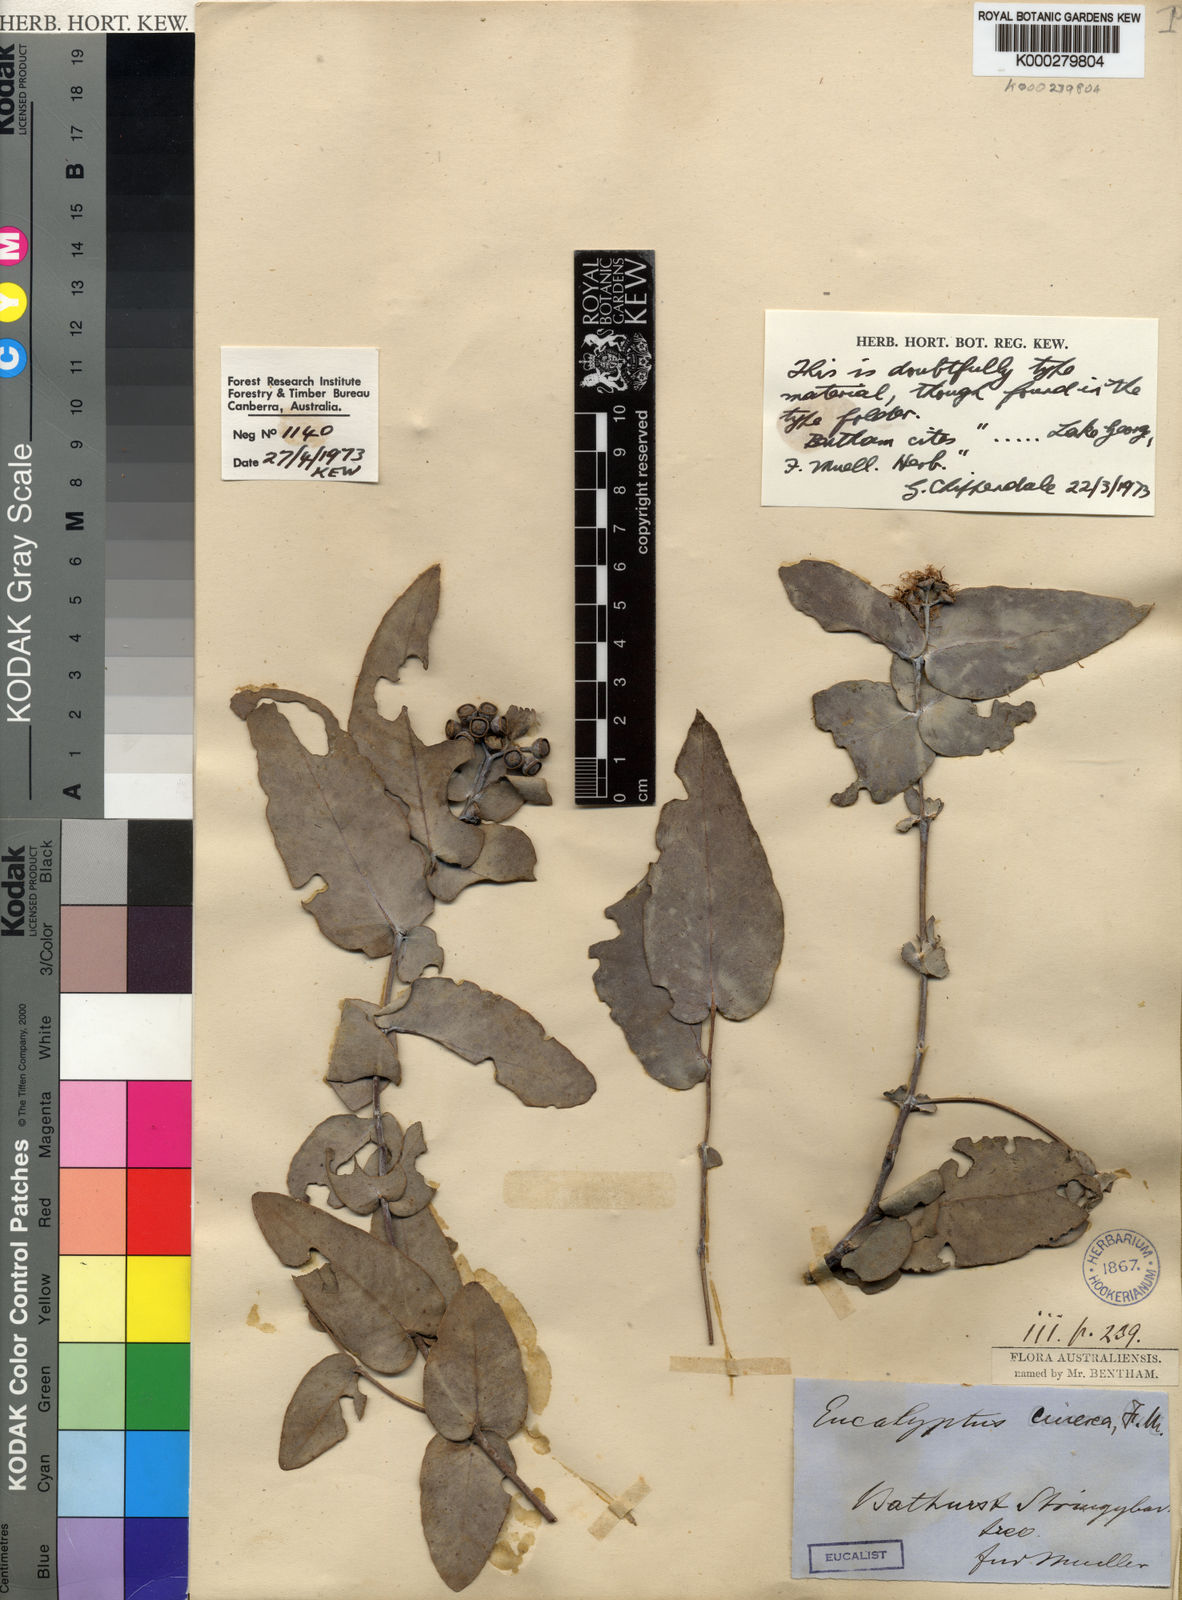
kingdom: Plantae
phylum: Tracheophyta
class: Magnoliopsida
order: Myrtales
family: Myrtaceae
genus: Eucalyptus
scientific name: Eucalyptus cinerea
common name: Argyle apple
